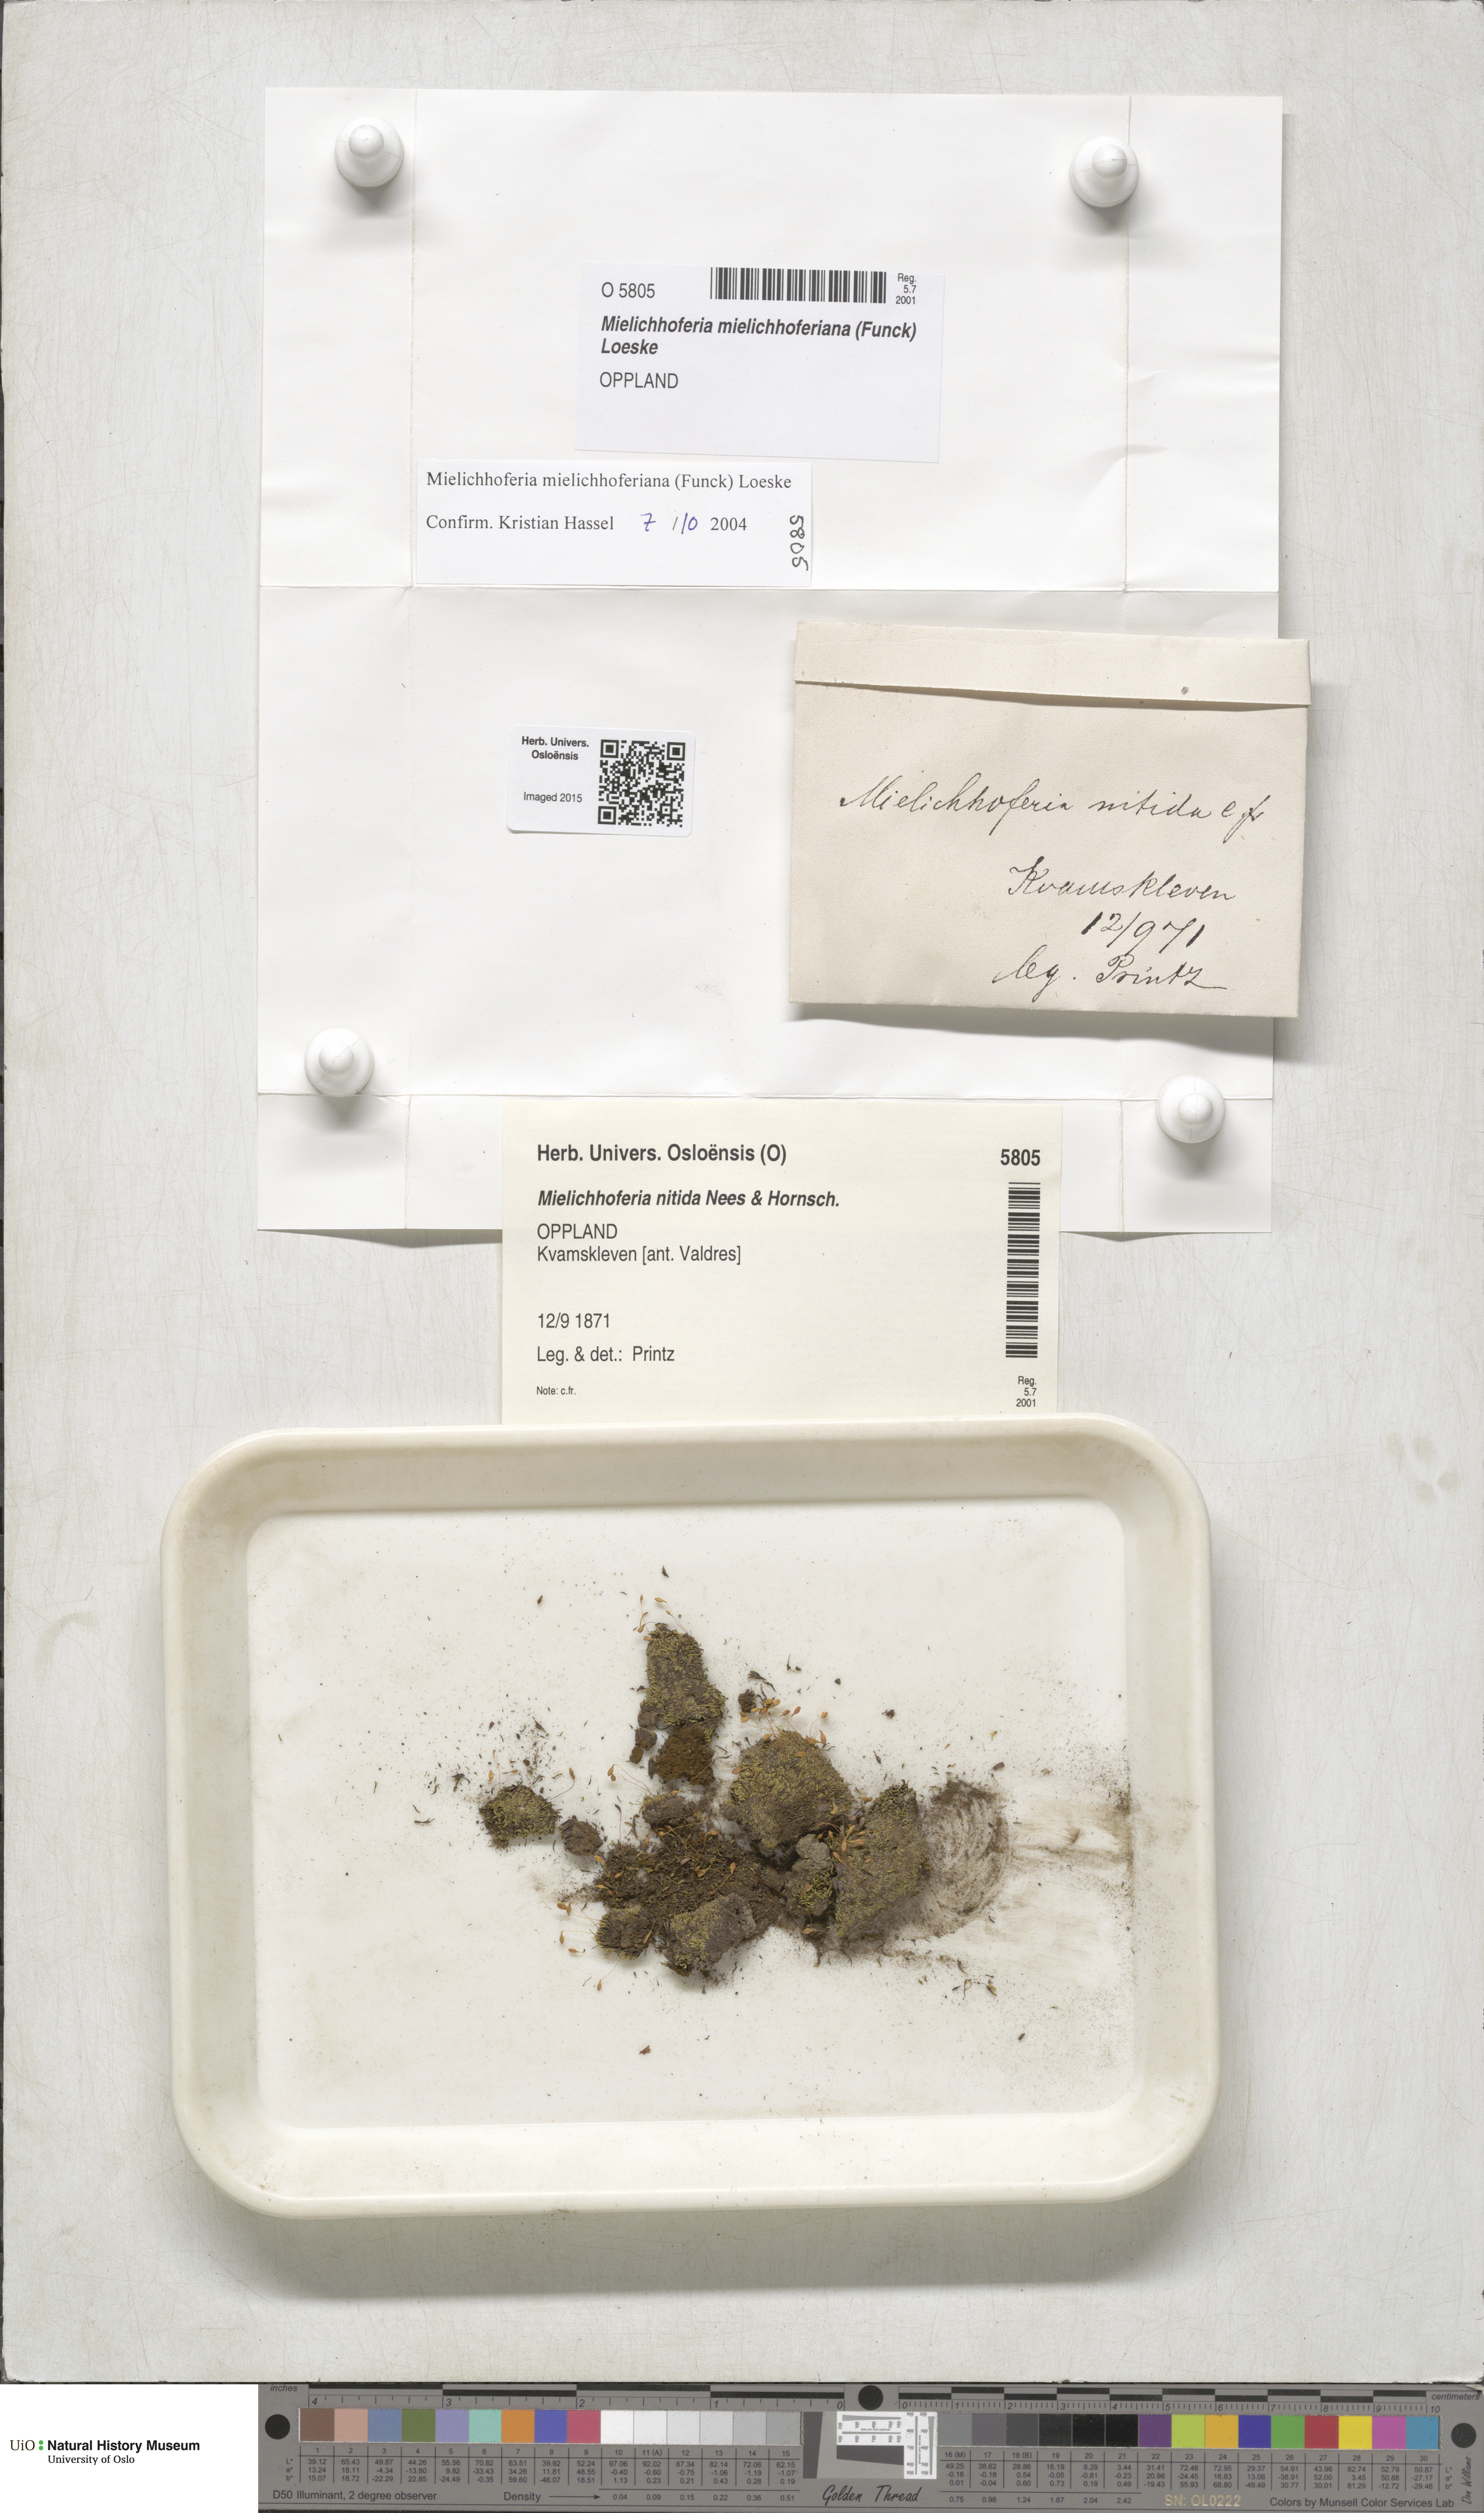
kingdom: Plantae
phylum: Bryophyta
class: Bryopsida
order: Bryales
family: Mniaceae
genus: Mielichhoferia
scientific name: Mielichhoferia mielichhoferiana
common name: Alpine copper-moss
